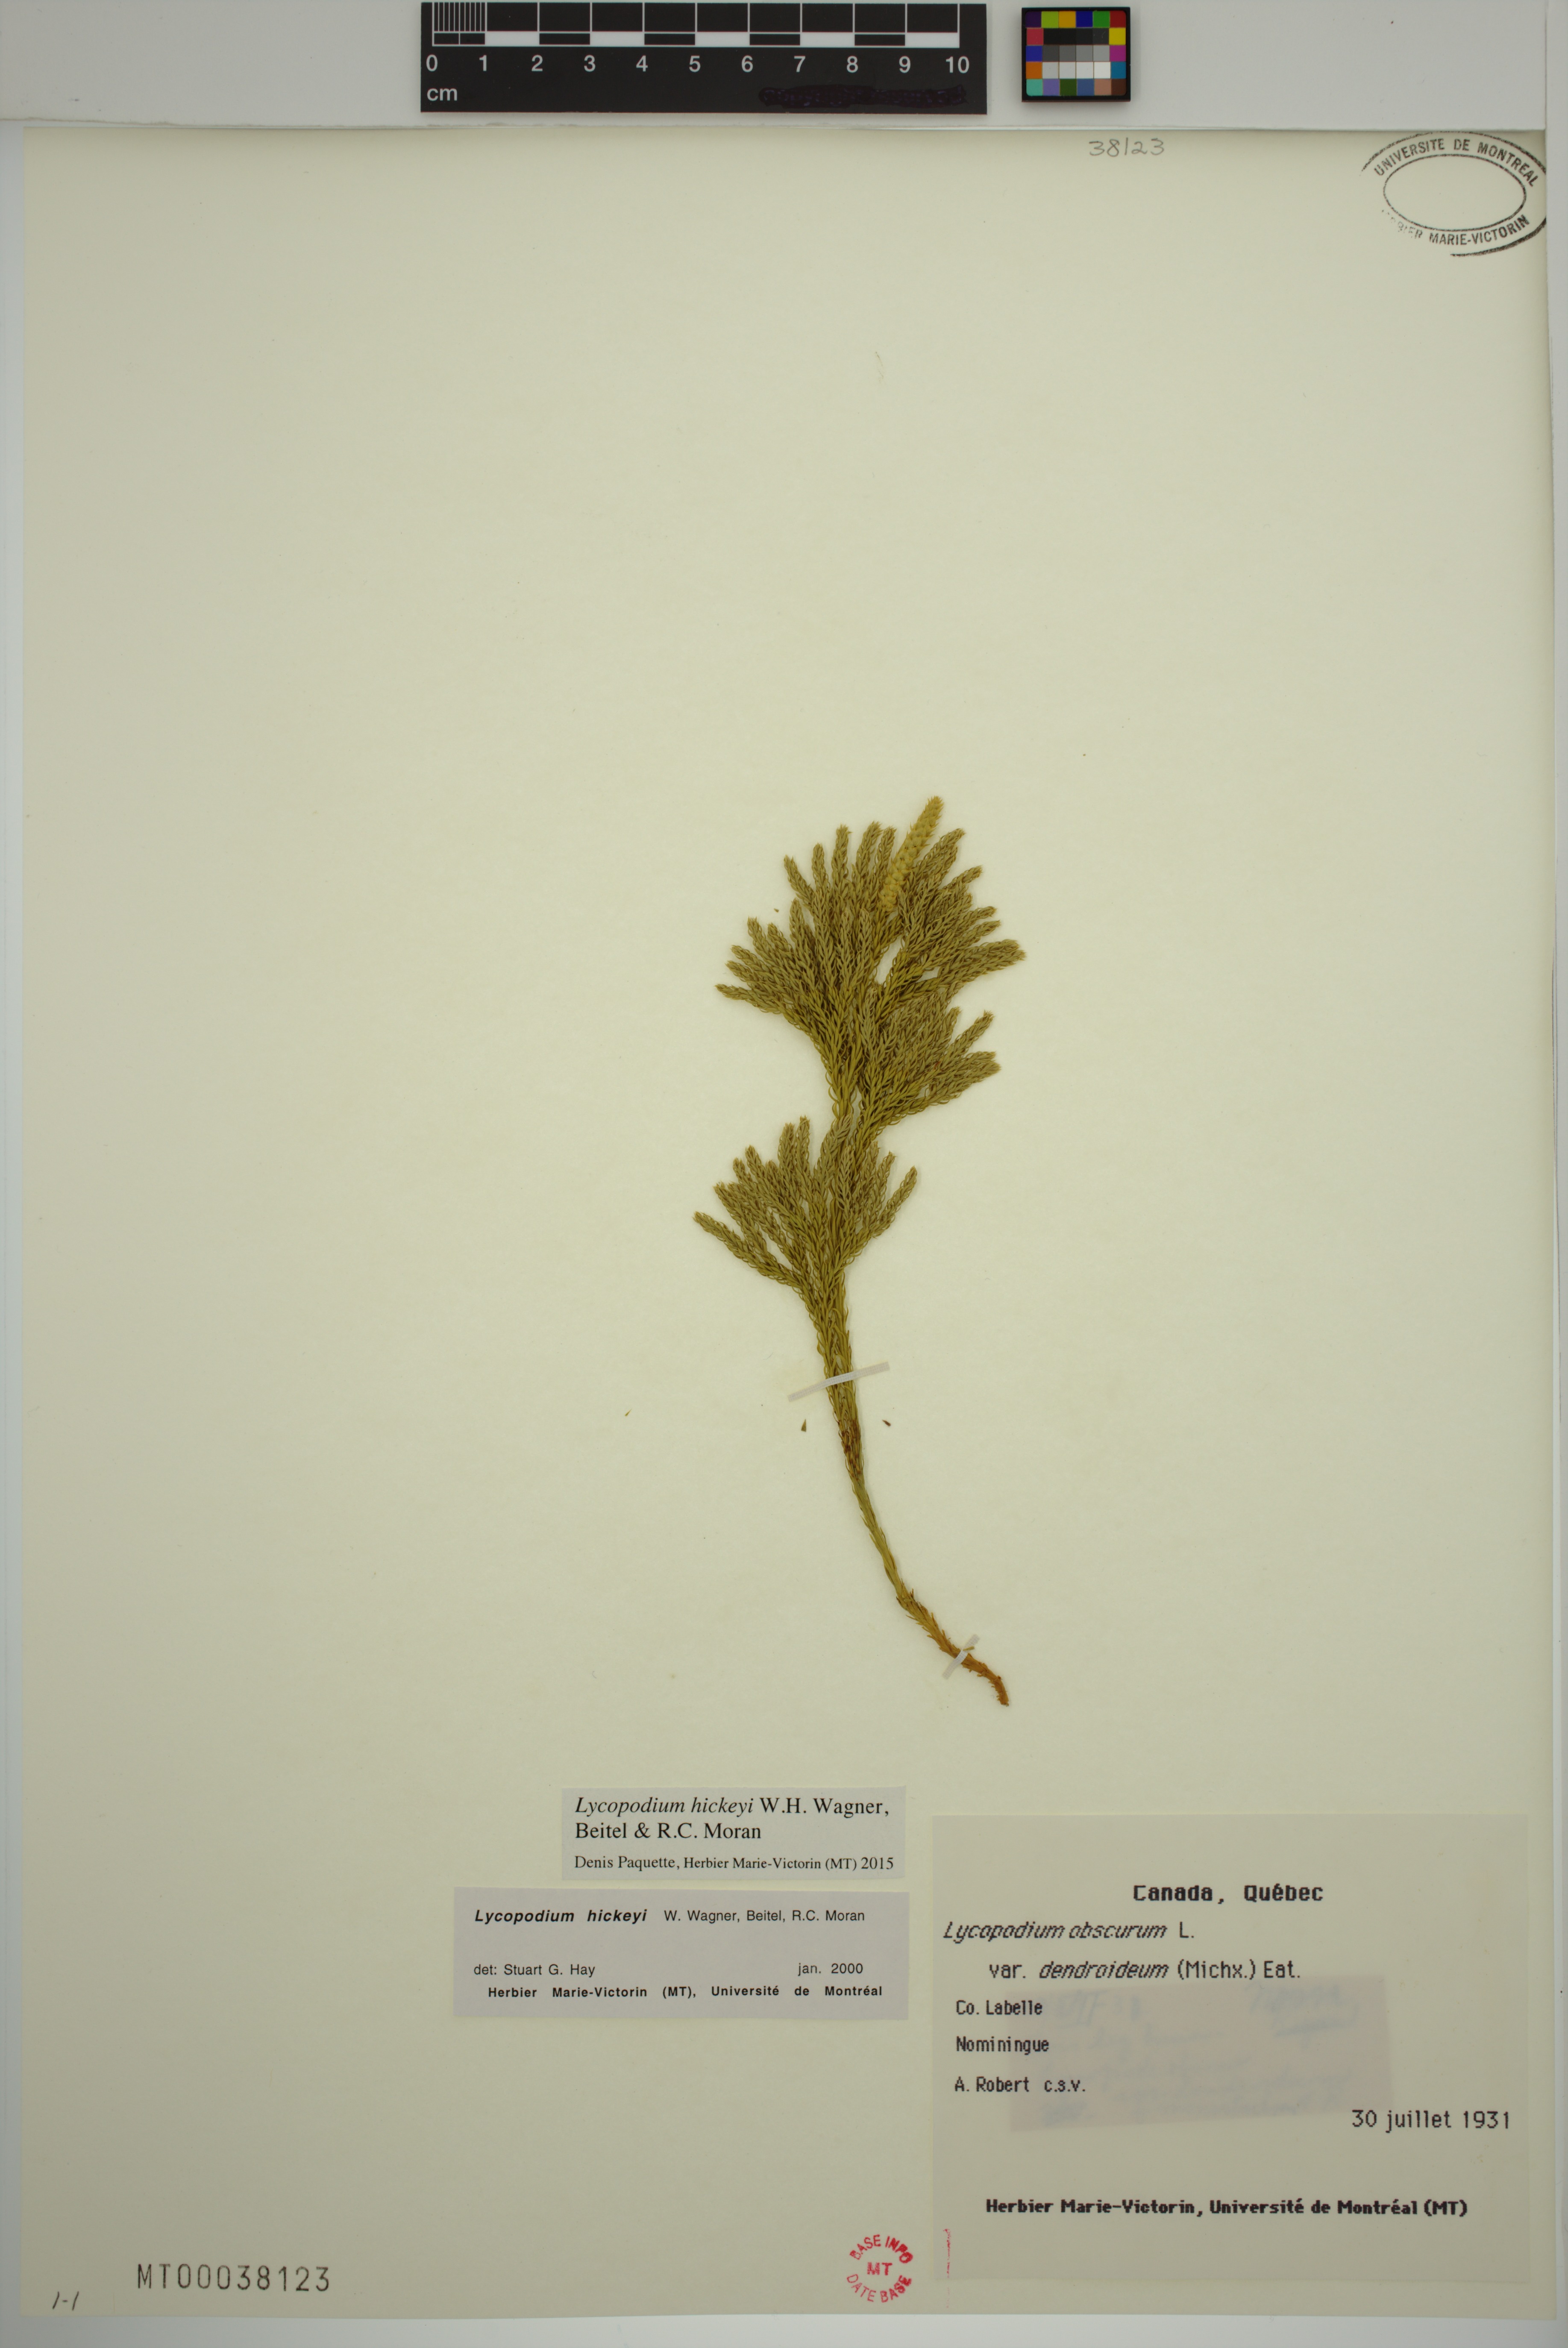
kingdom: Plantae
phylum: Tracheophyta
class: Lycopodiopsida
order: Lycopodiales
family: Lycopodiaceae
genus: Dendrolycopodium
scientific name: Dendrolycopodium hickeyi
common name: Hickey's clubmoss
